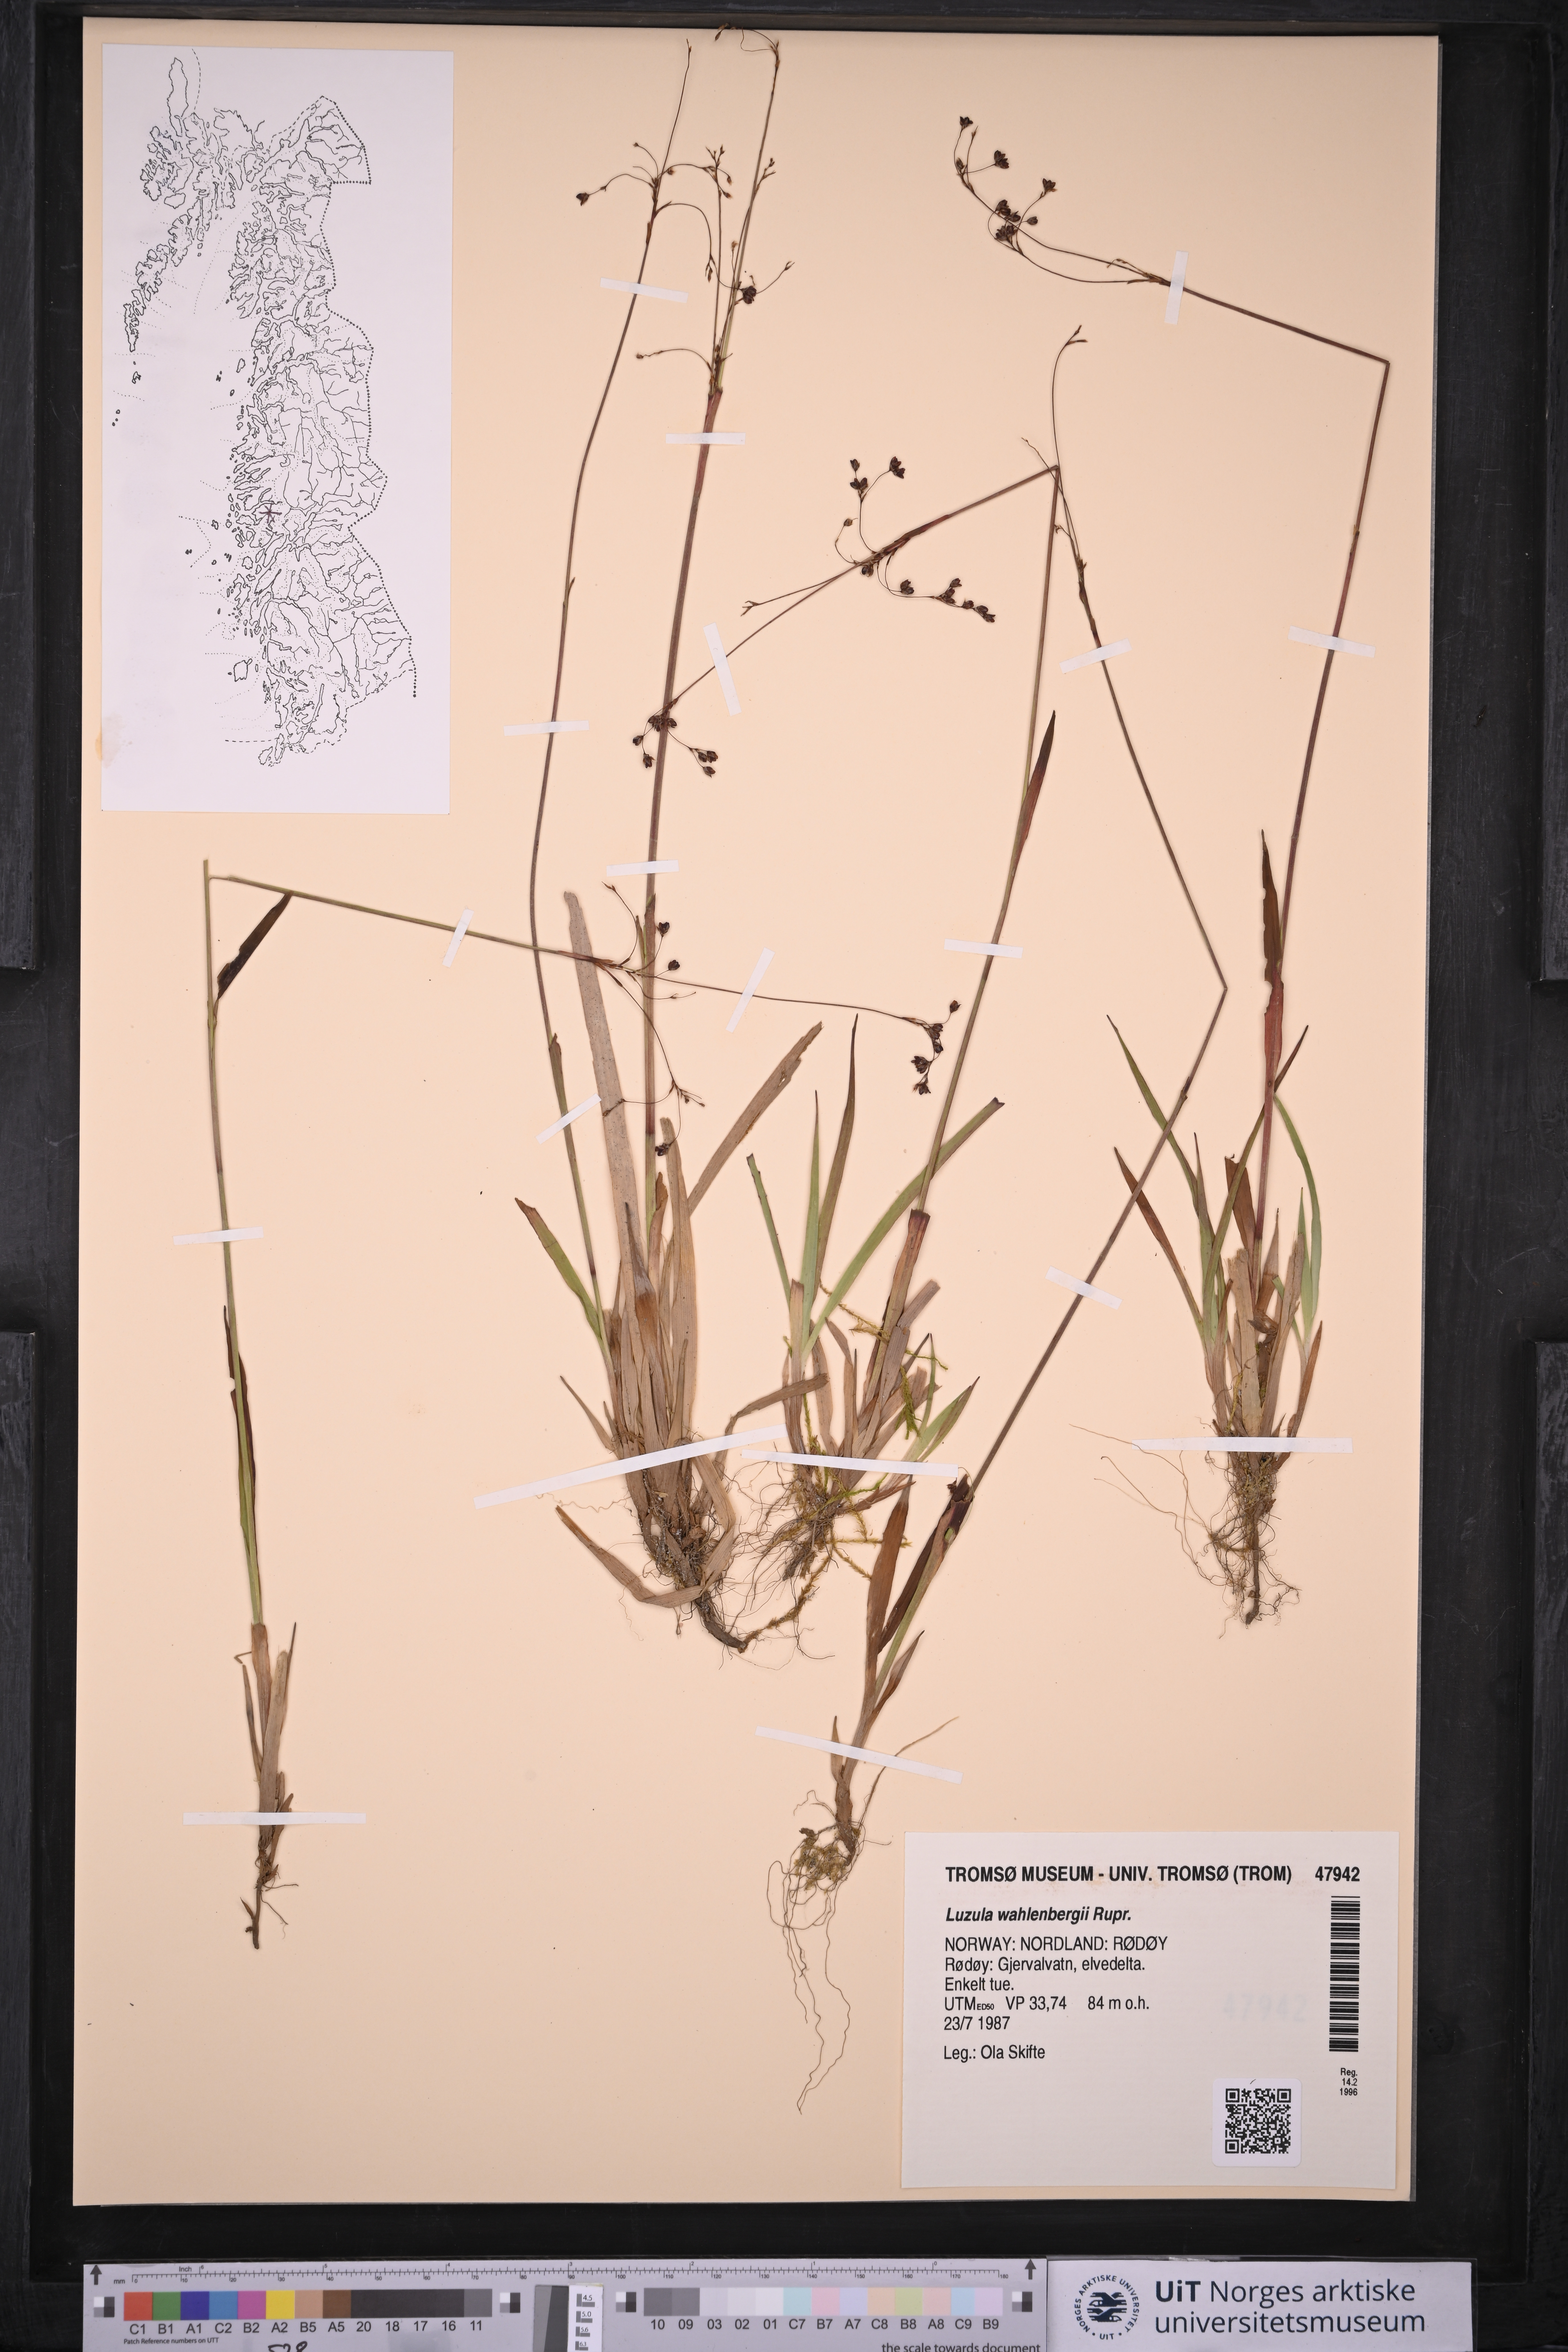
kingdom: Plantae
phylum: Tracheophyta
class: Liliopsida
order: Poales
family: Juncaceae
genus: Luzula
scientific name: Luzula wahlenbergii
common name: Wahlenberg's wood-rush
